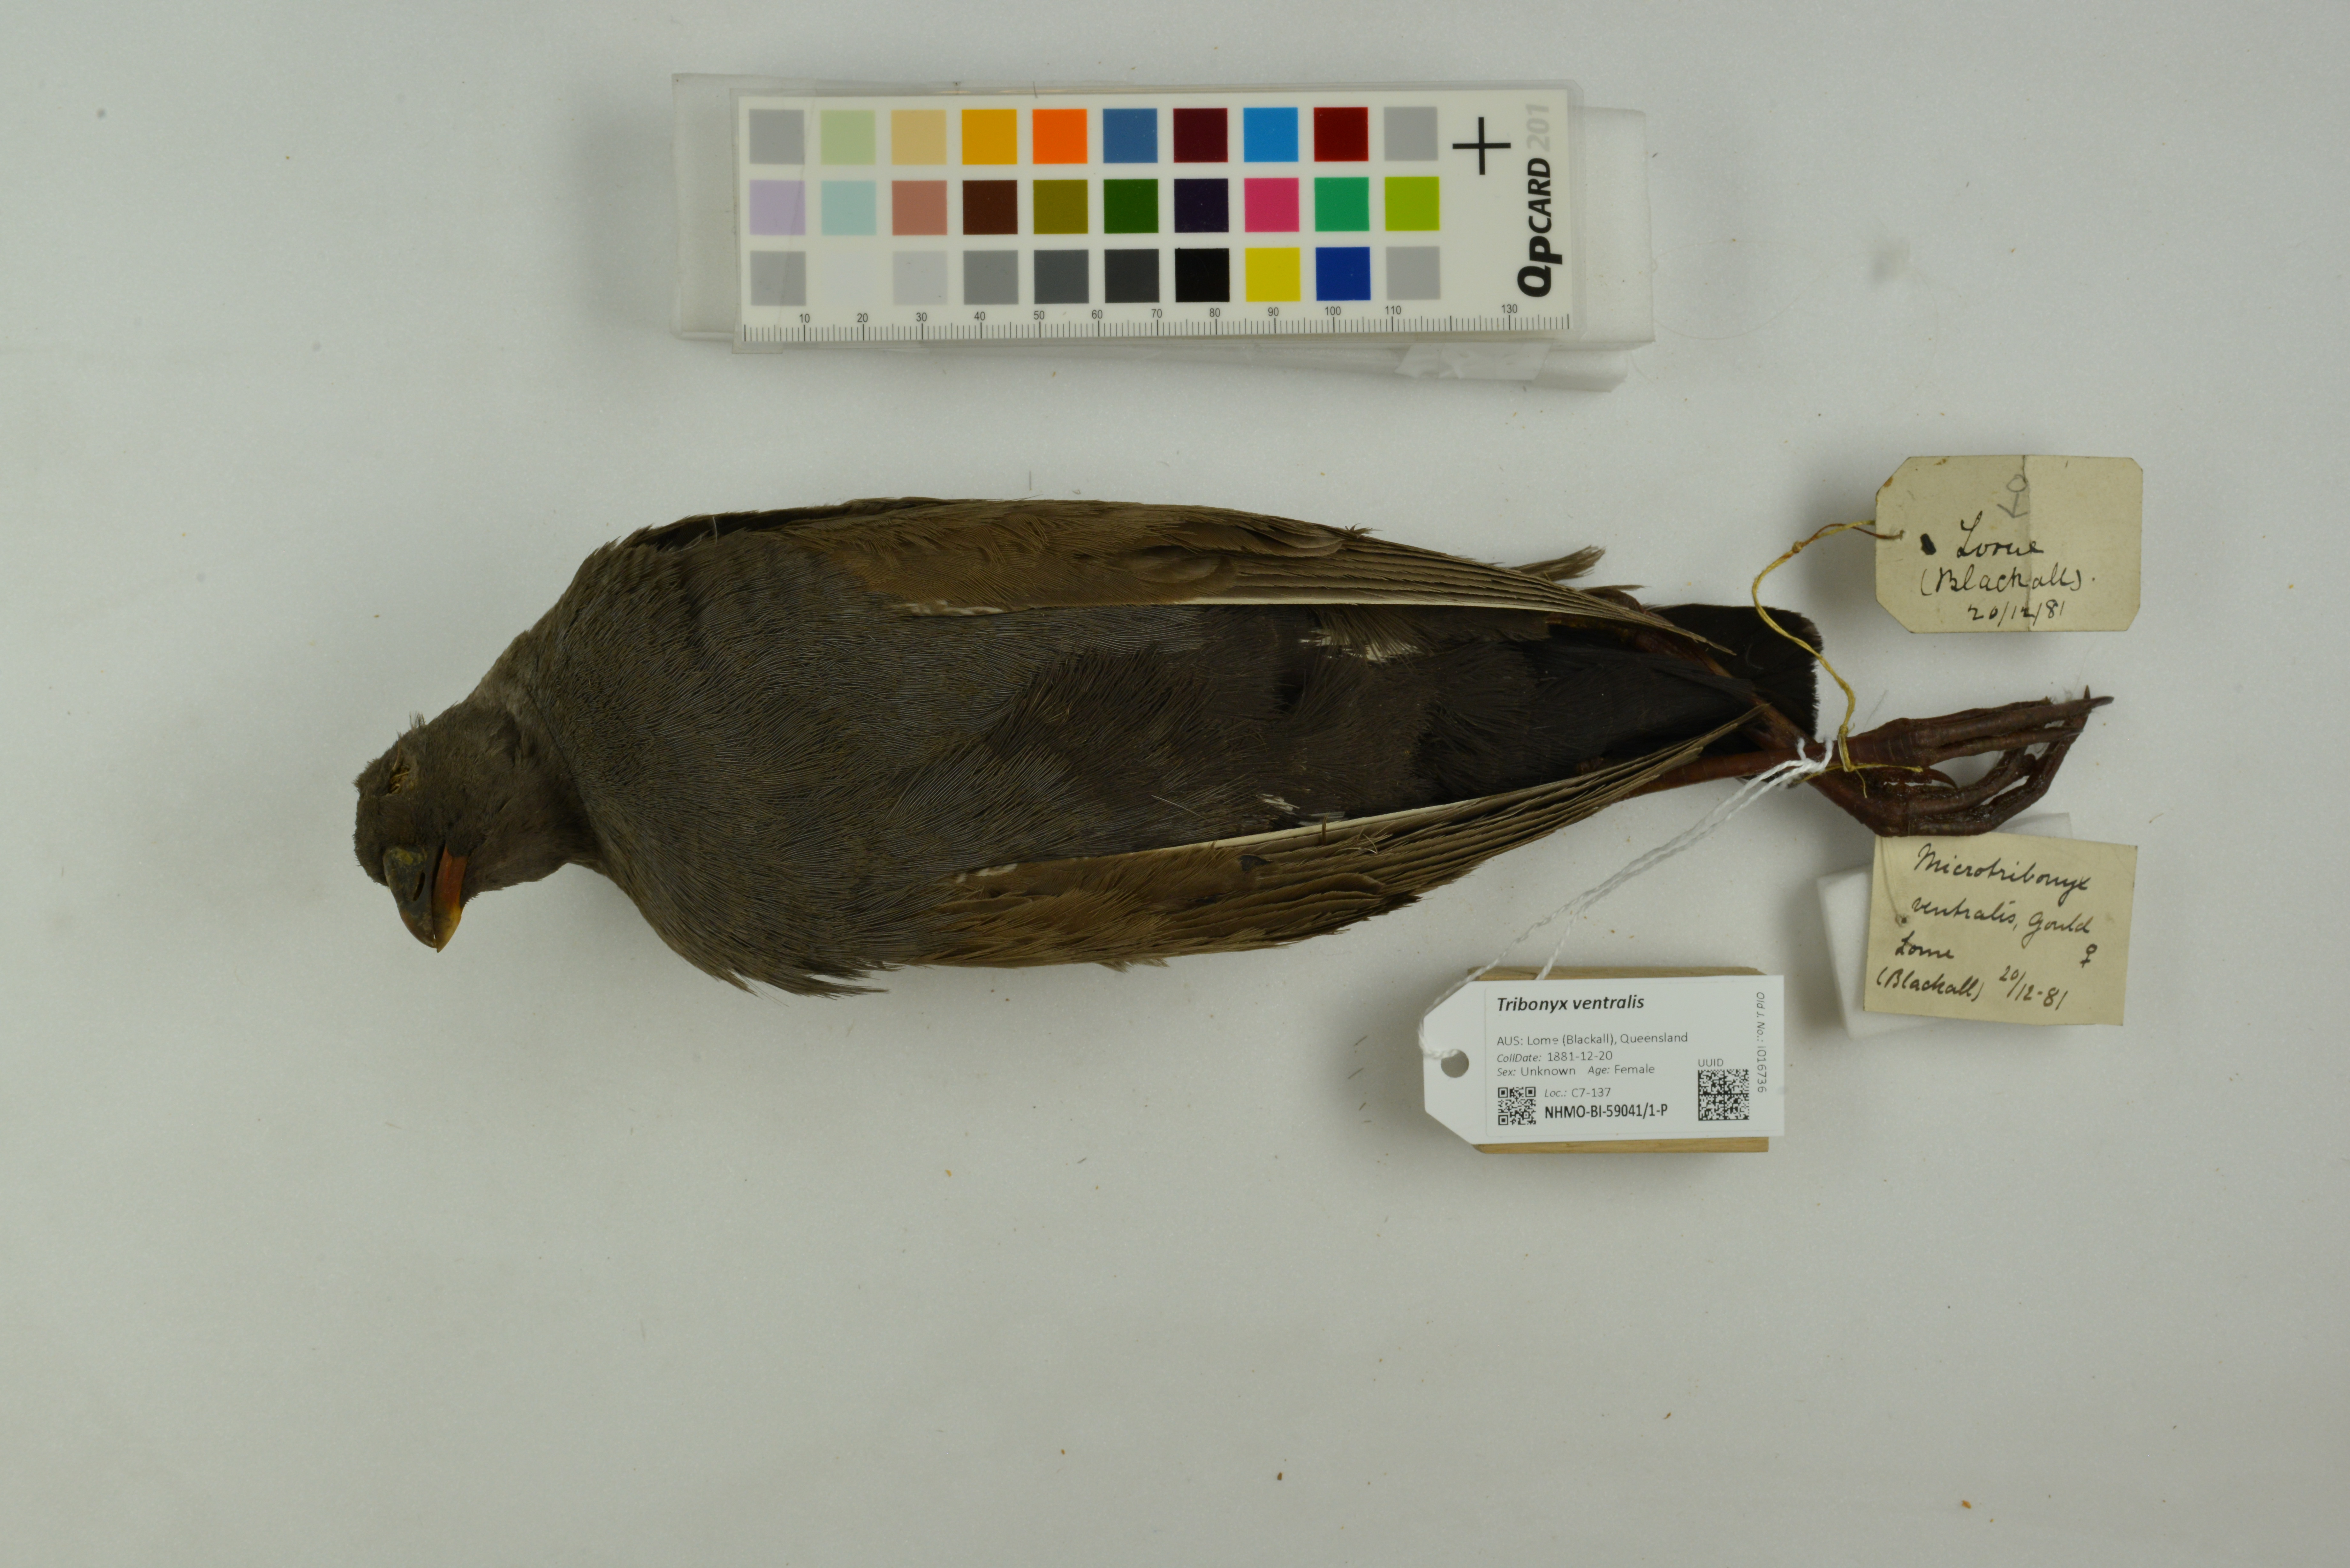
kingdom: Animalia
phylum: Chordata
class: Aves
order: Gruiformes
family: Rallidae
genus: Gallinula
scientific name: Gallinula ventralis
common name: Black-tailed nativehen
